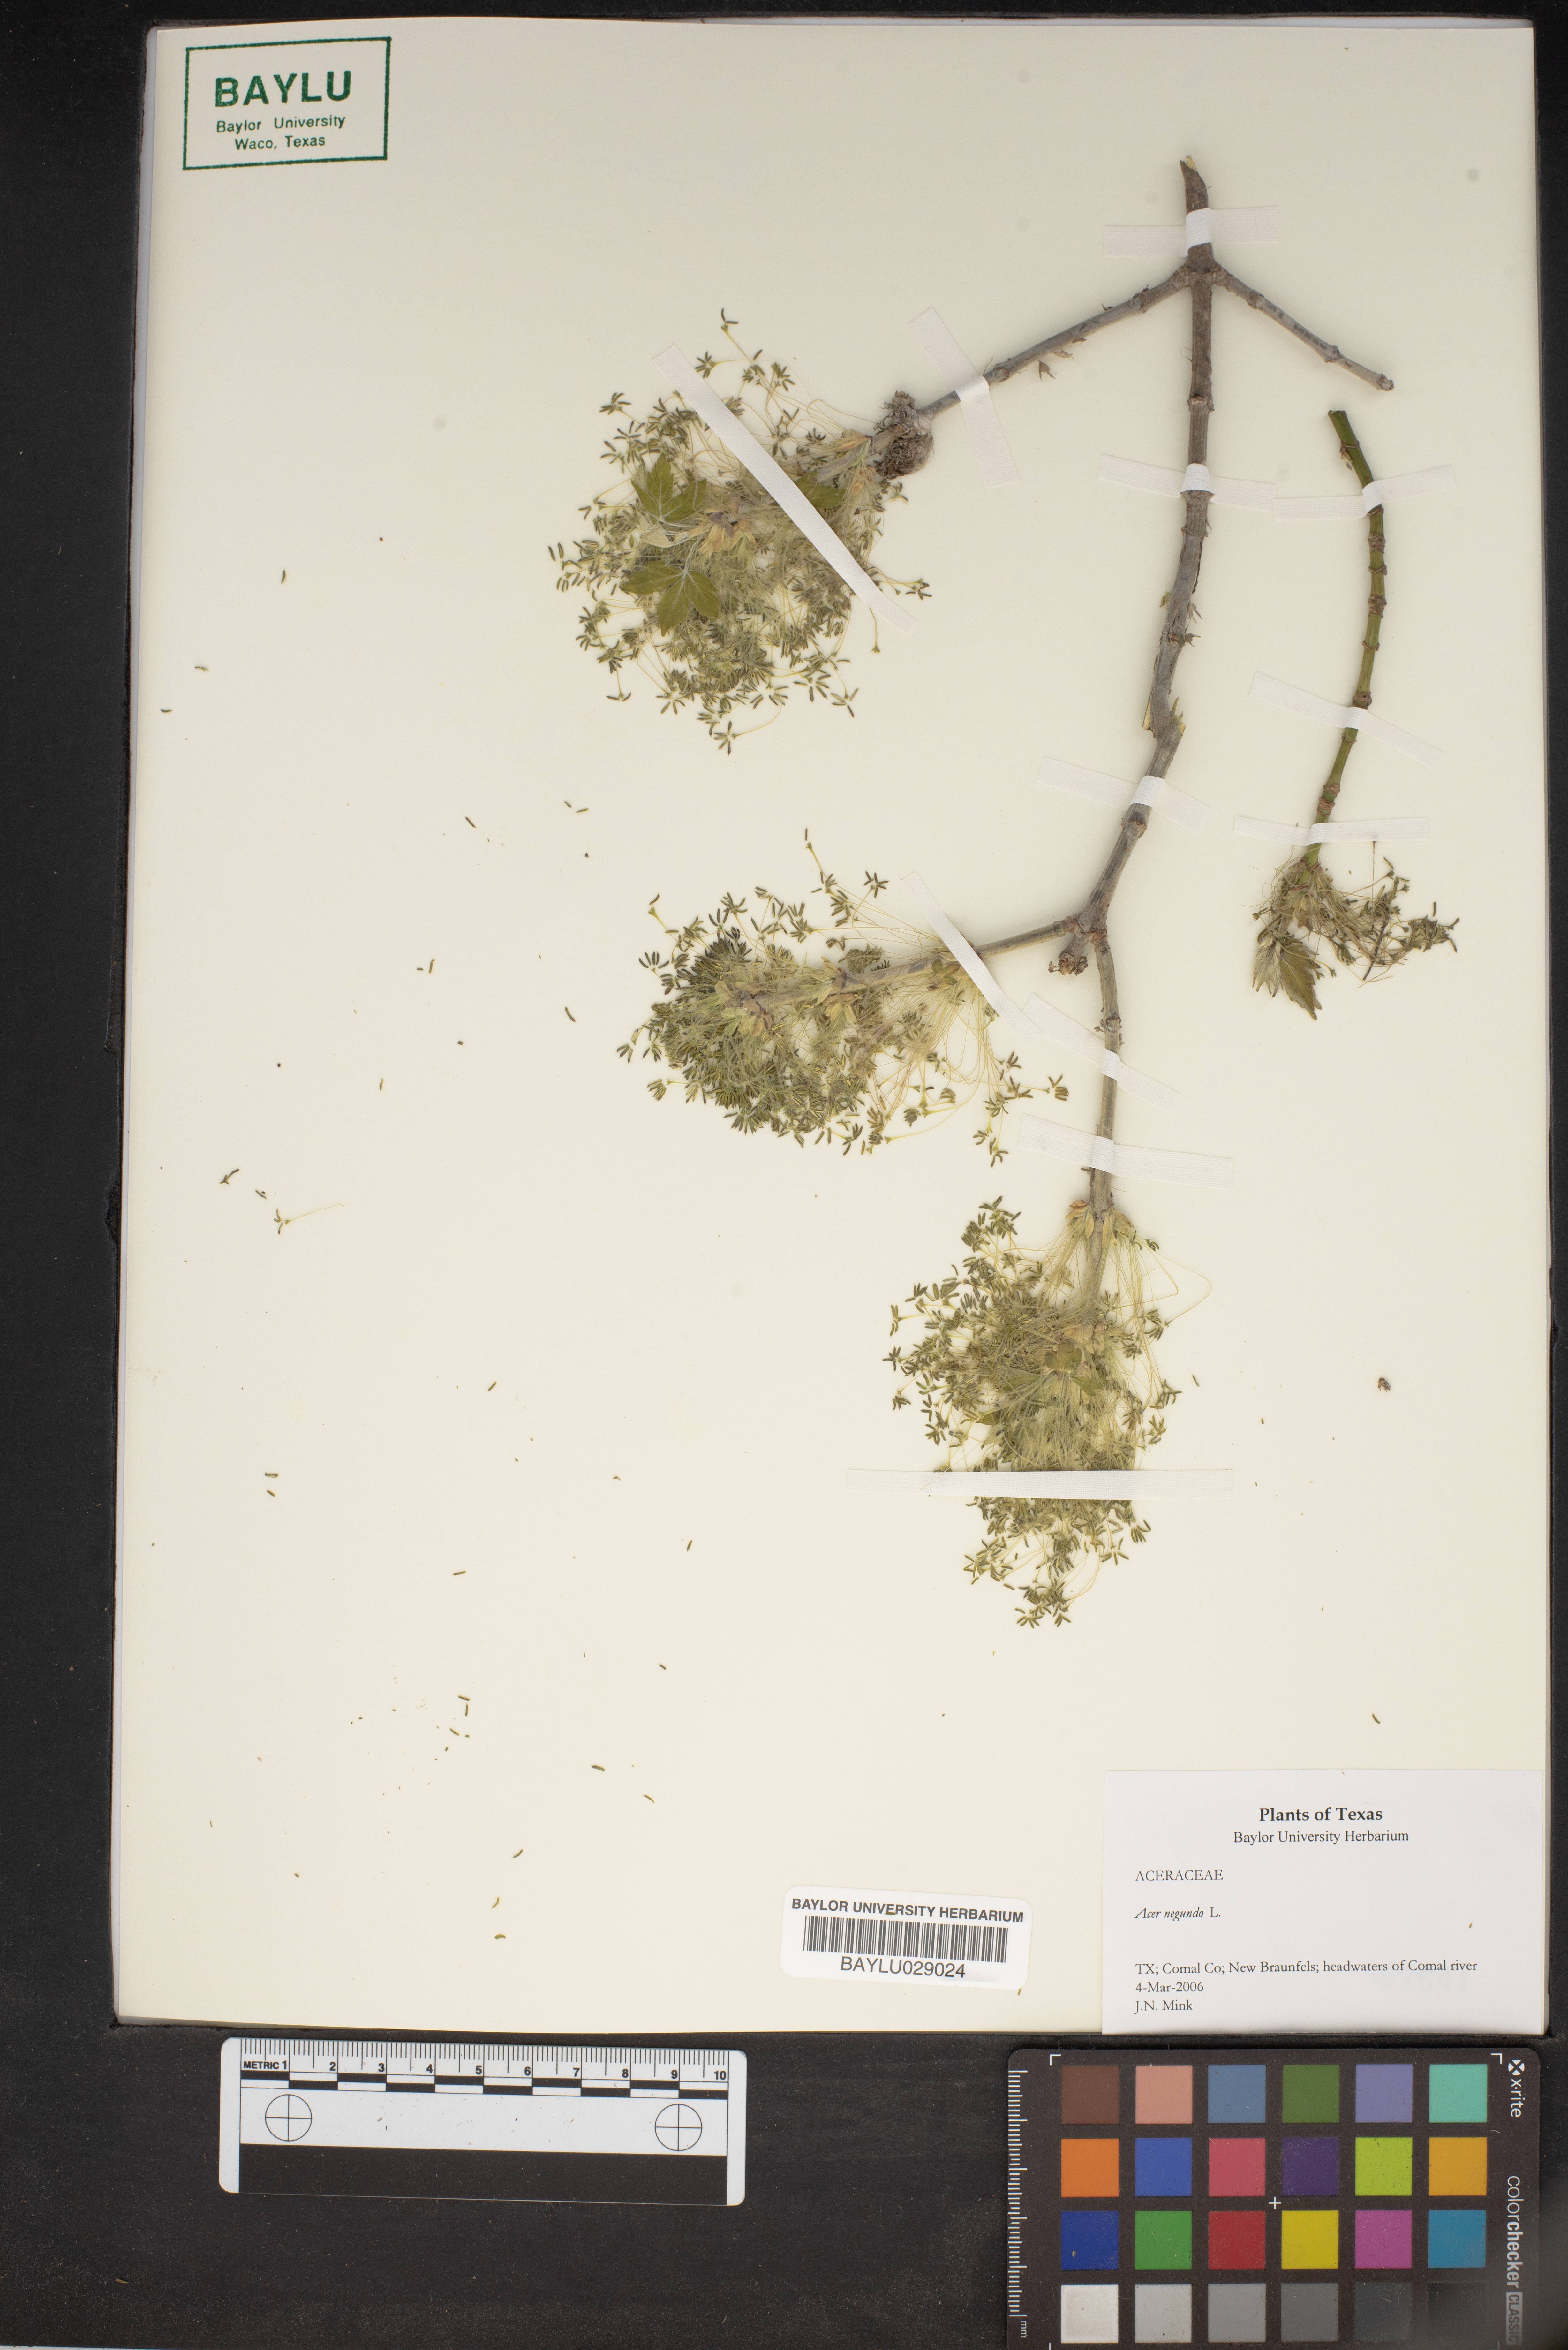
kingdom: Plantae
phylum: Tracheophyta
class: Magnoliopsida
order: Sapindales
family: Sapindaceae
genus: Acer
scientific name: Acer negundo
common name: Ashleaf maple
